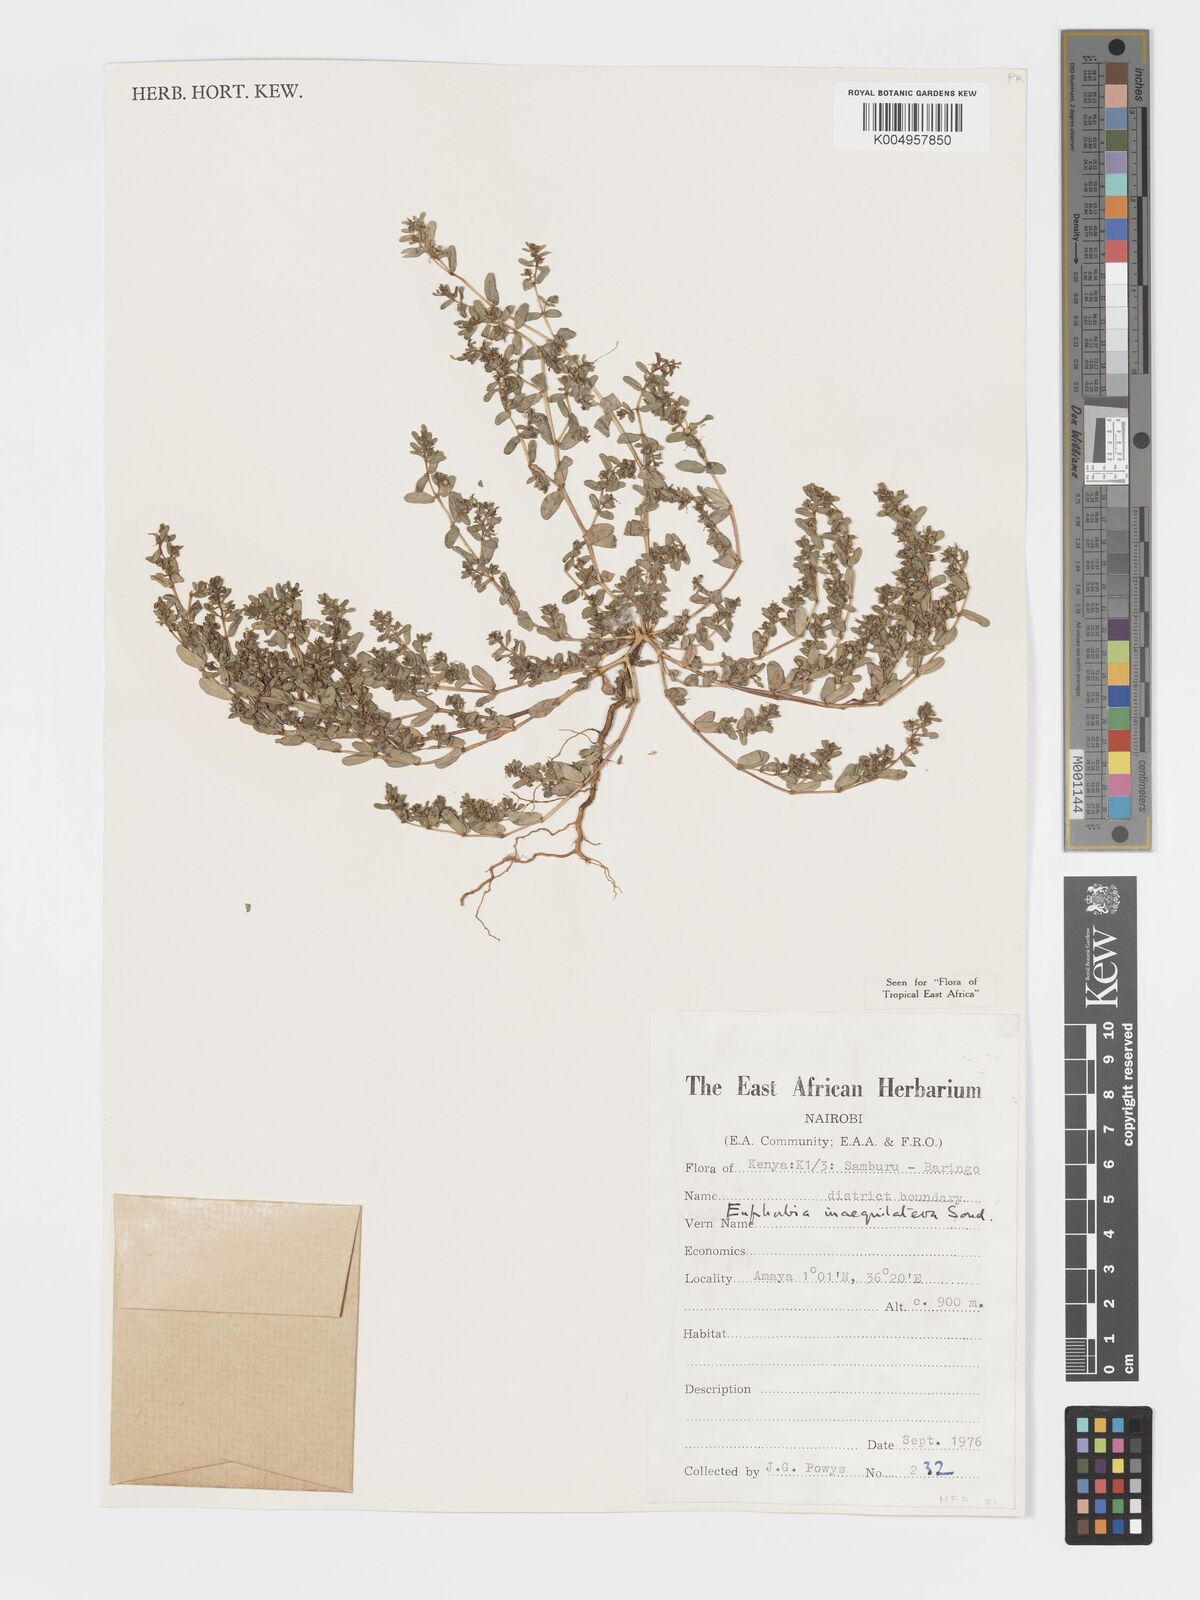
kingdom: Plantae
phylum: Tracheophyta
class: Magnoliopsida
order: Malpighiales
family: Euphorbiaceae
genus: Euphorbia
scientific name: Euphorbia inaequilatera
